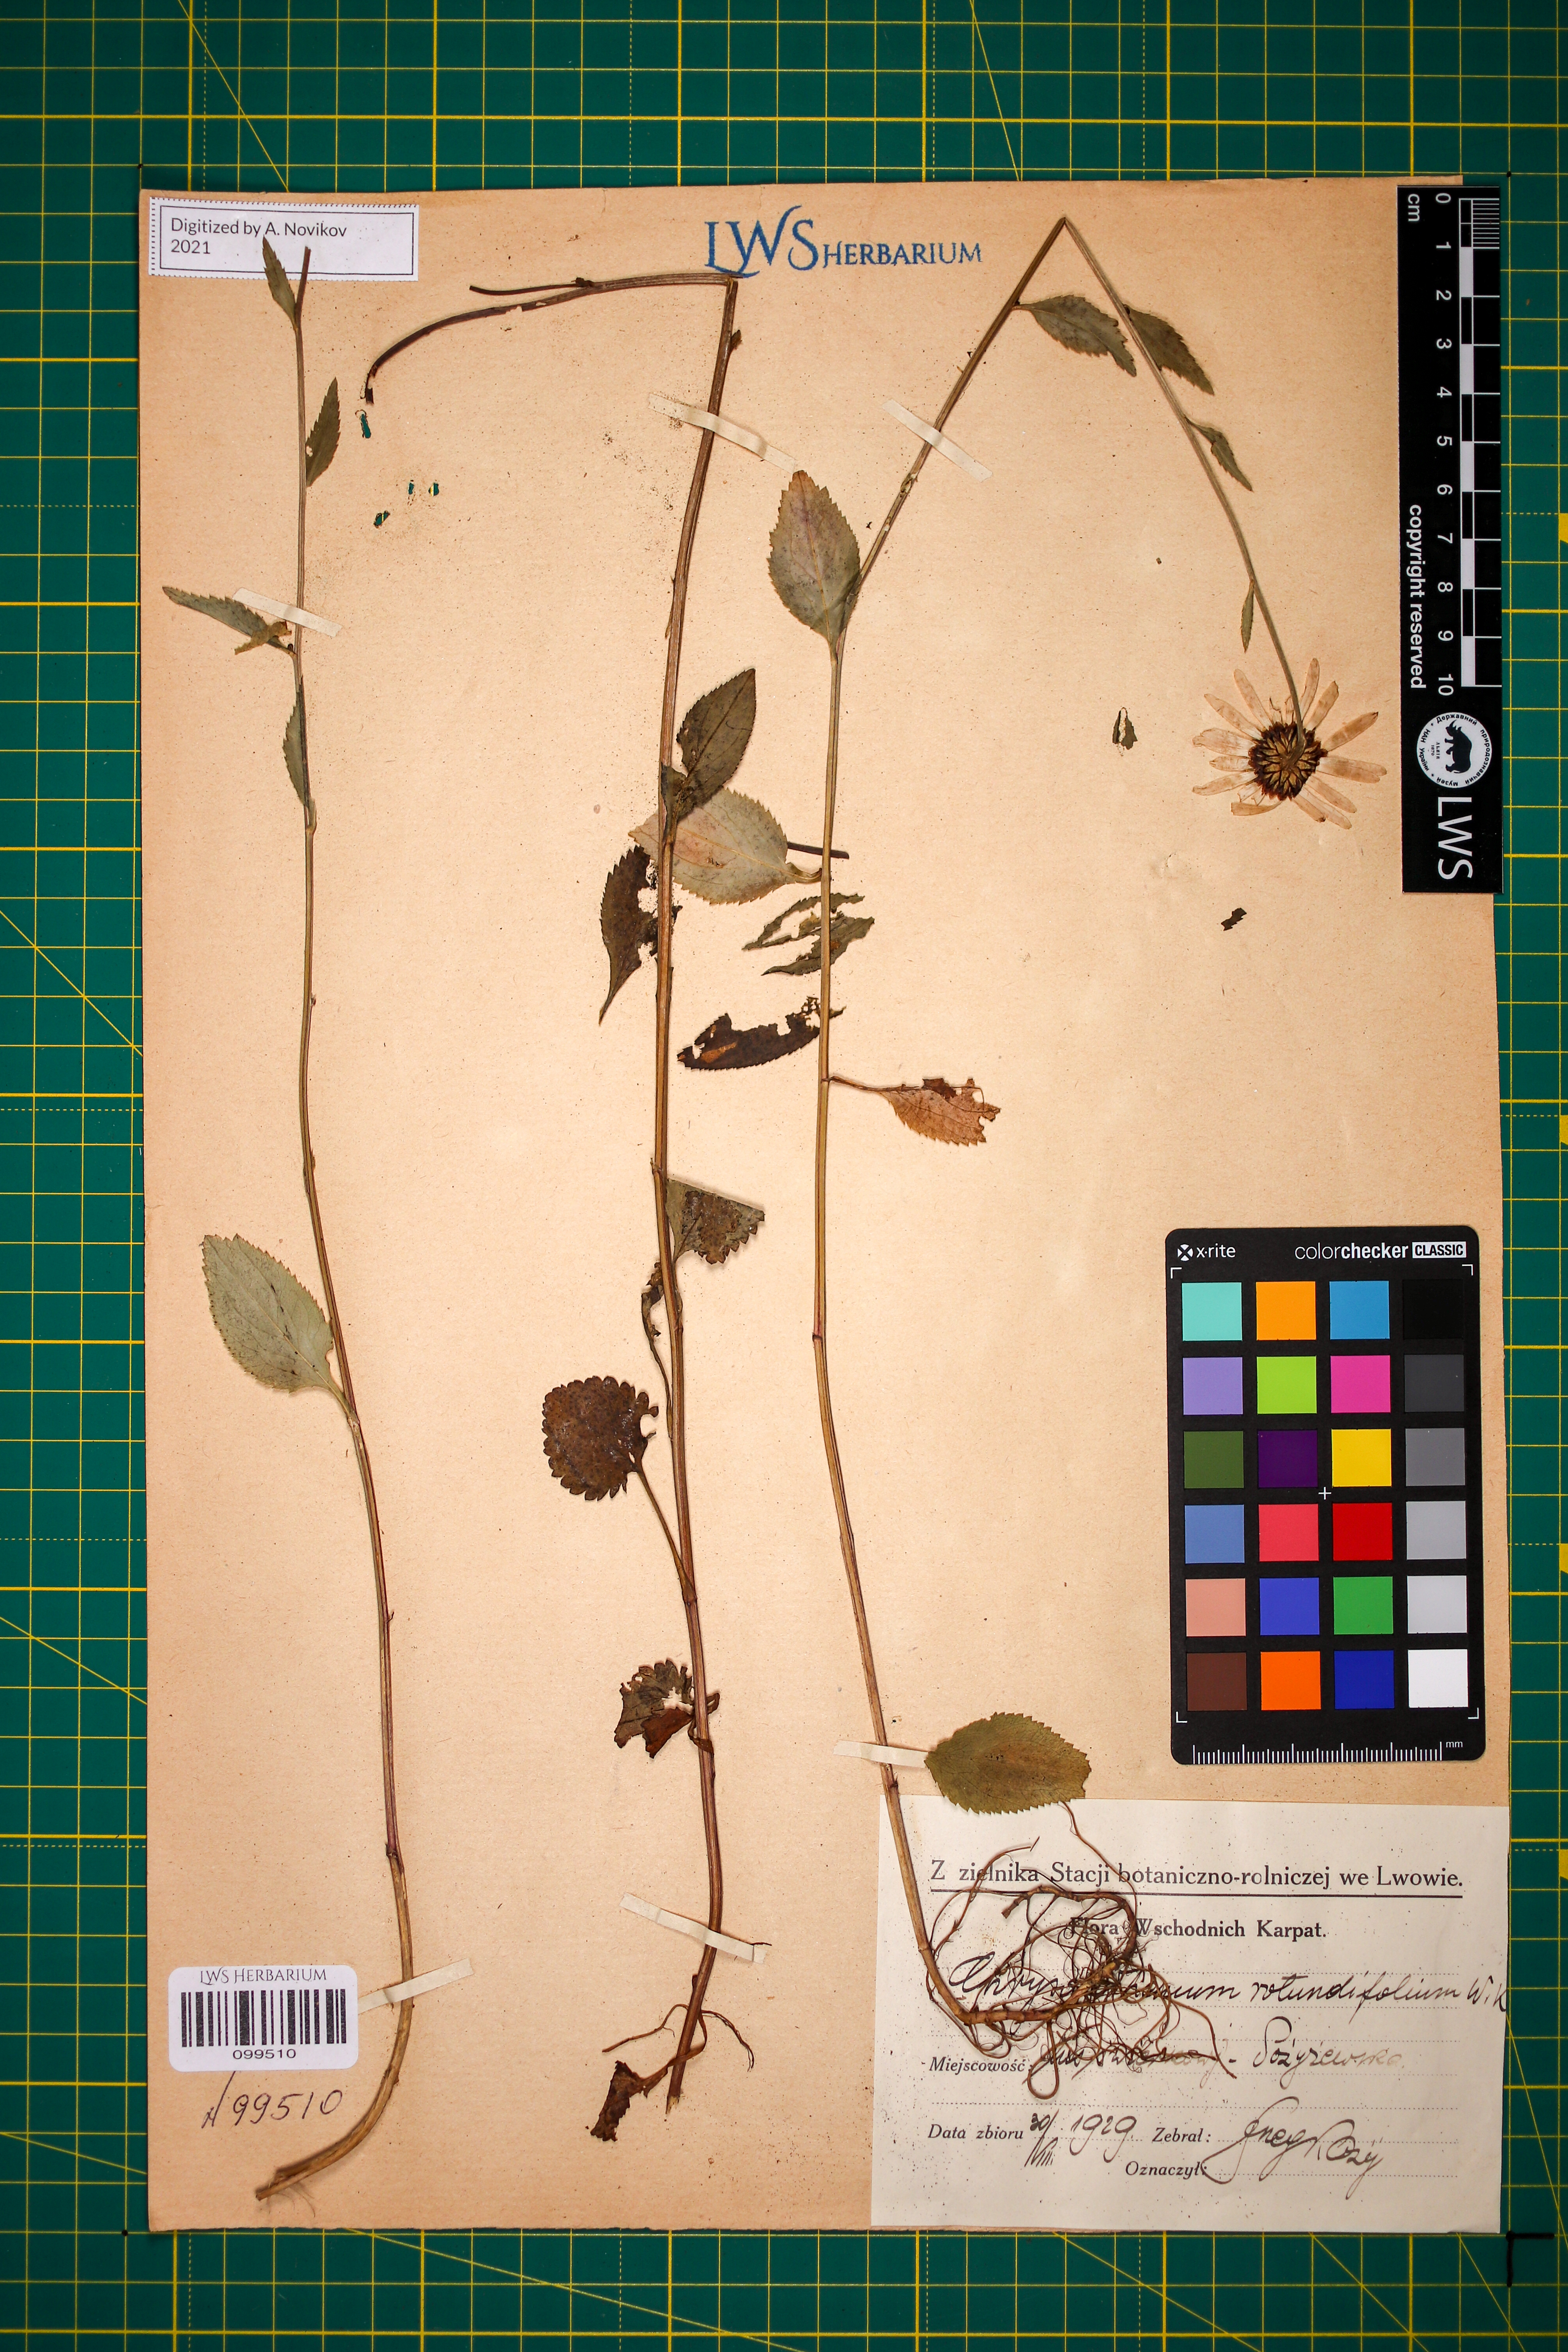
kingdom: Plantae
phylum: Tracheophyta
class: Magnoliopsida
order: Asterales
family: Asteraceae
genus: Leucanthemum
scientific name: Leucanthemum rotundifolium
